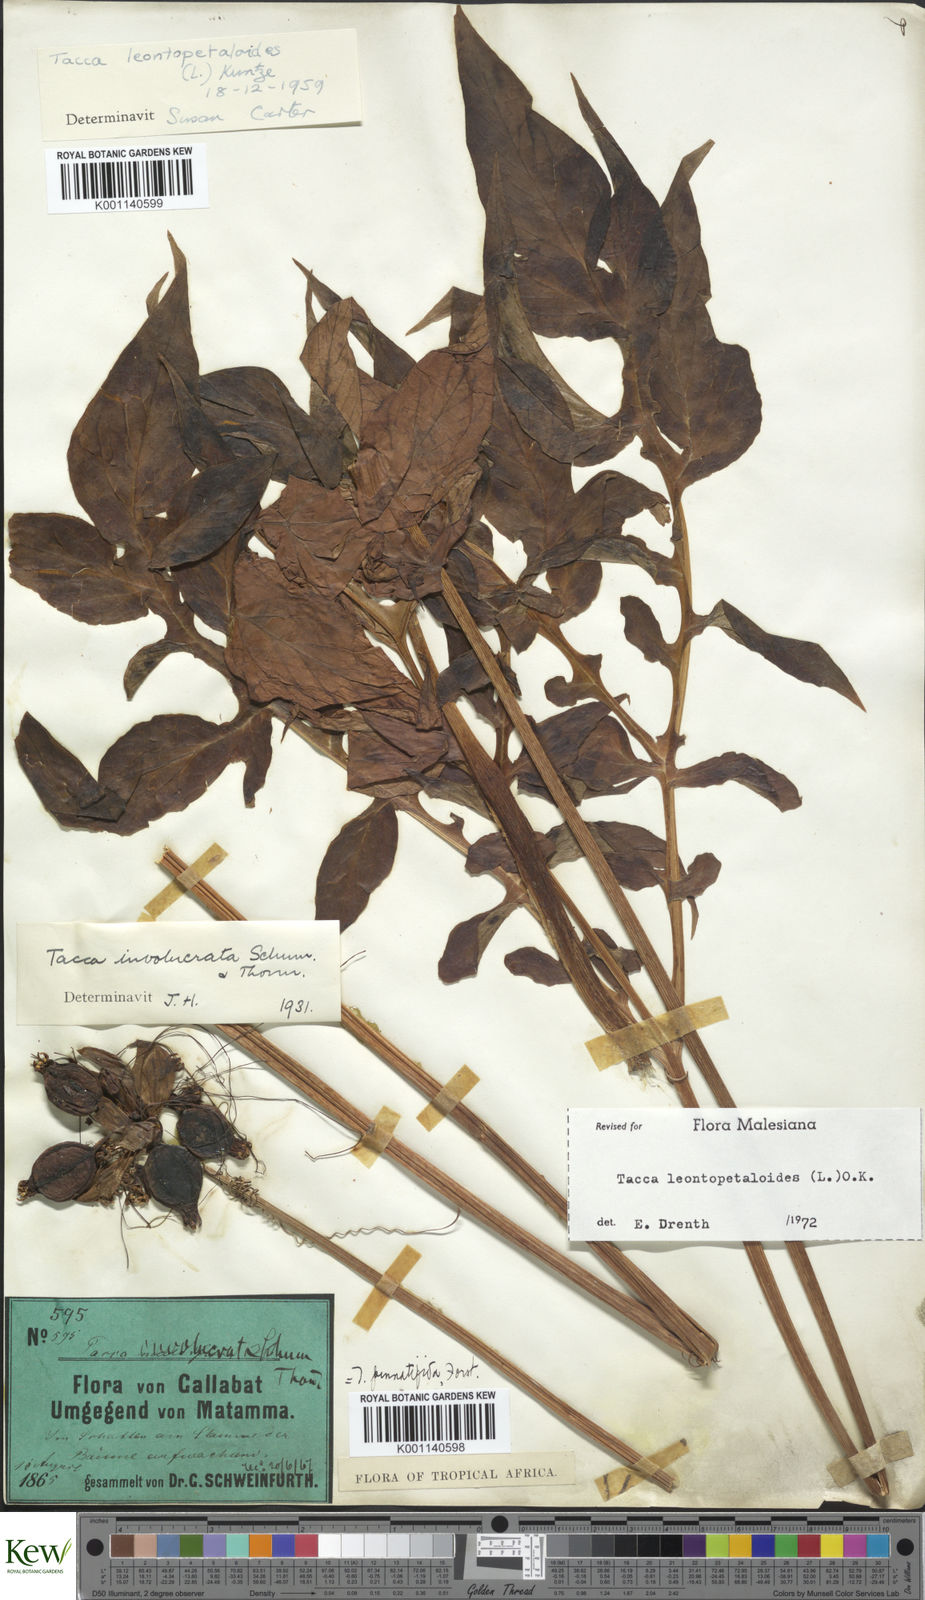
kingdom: Plantae
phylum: Tracheophyta
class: Liliopsida
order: Dioscoreales
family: Dioscoreaceae
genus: Tacca
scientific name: Tacca leontopetaloides
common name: Arrowroot
